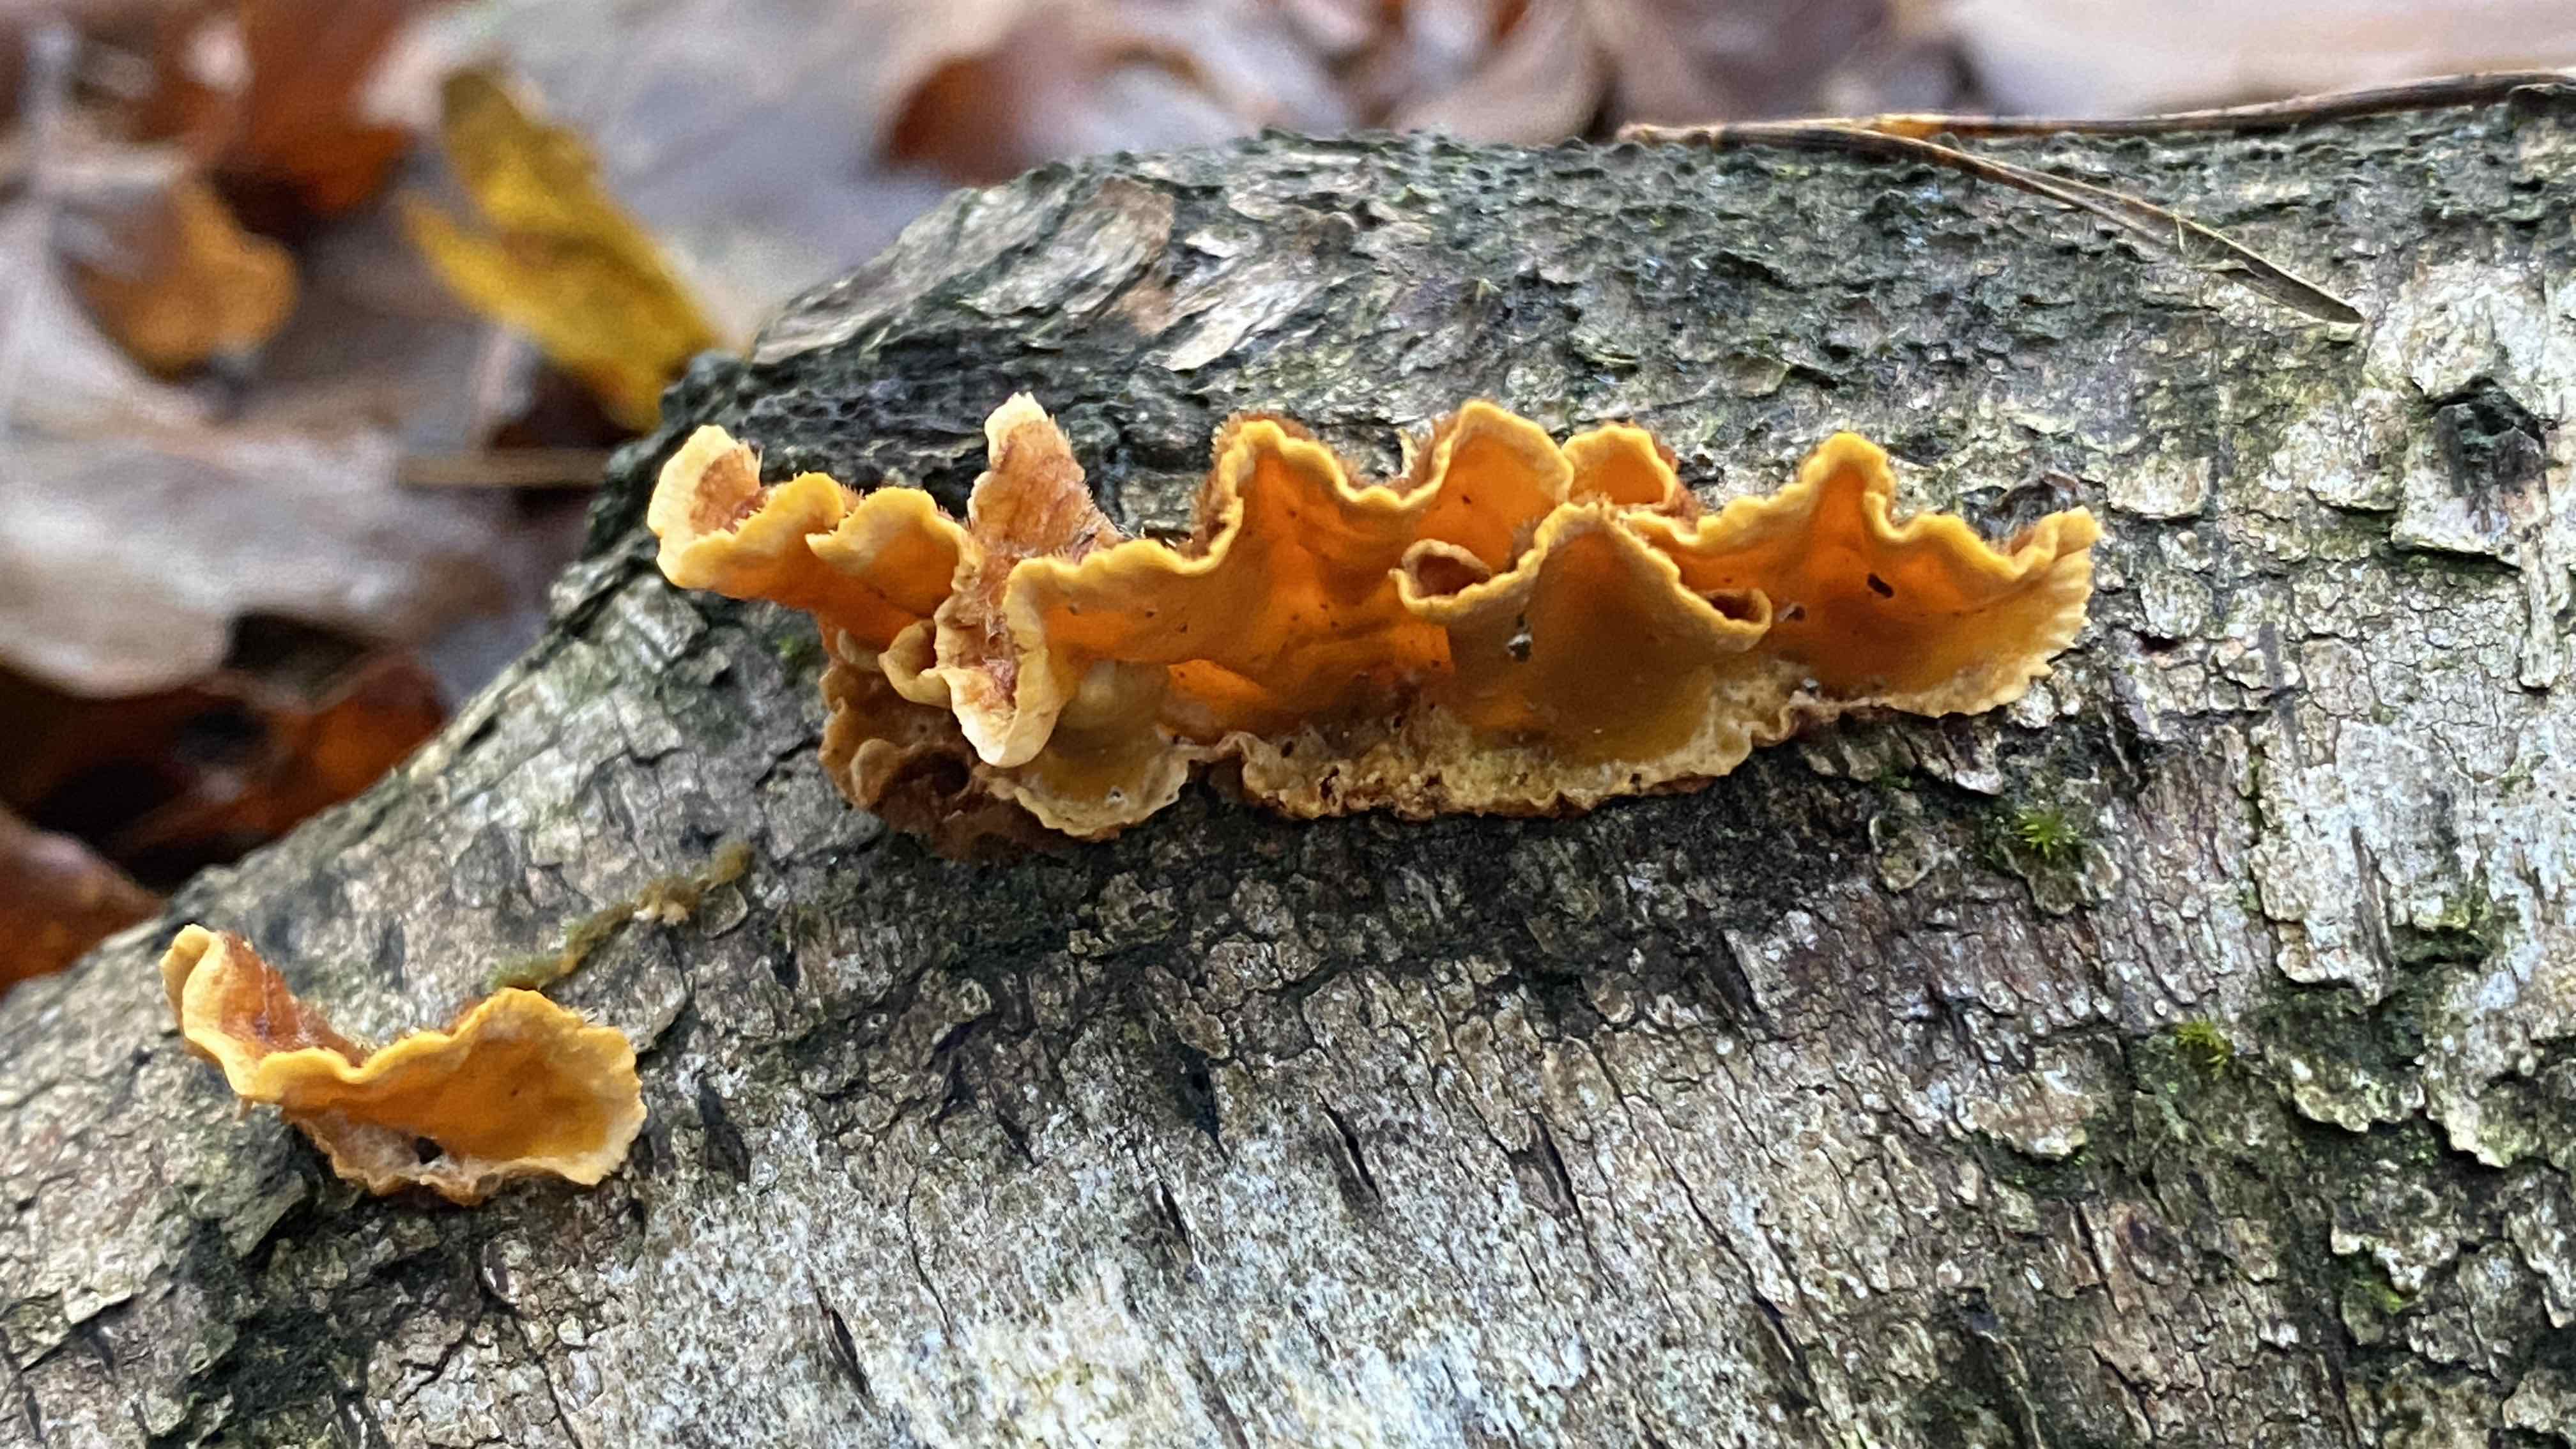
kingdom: Fungi
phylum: Basidiomycota
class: Agaricomycetes
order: Russulales
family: Stereaceae
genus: Stereum
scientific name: Stereum hirsutum
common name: håret lædersvamp
